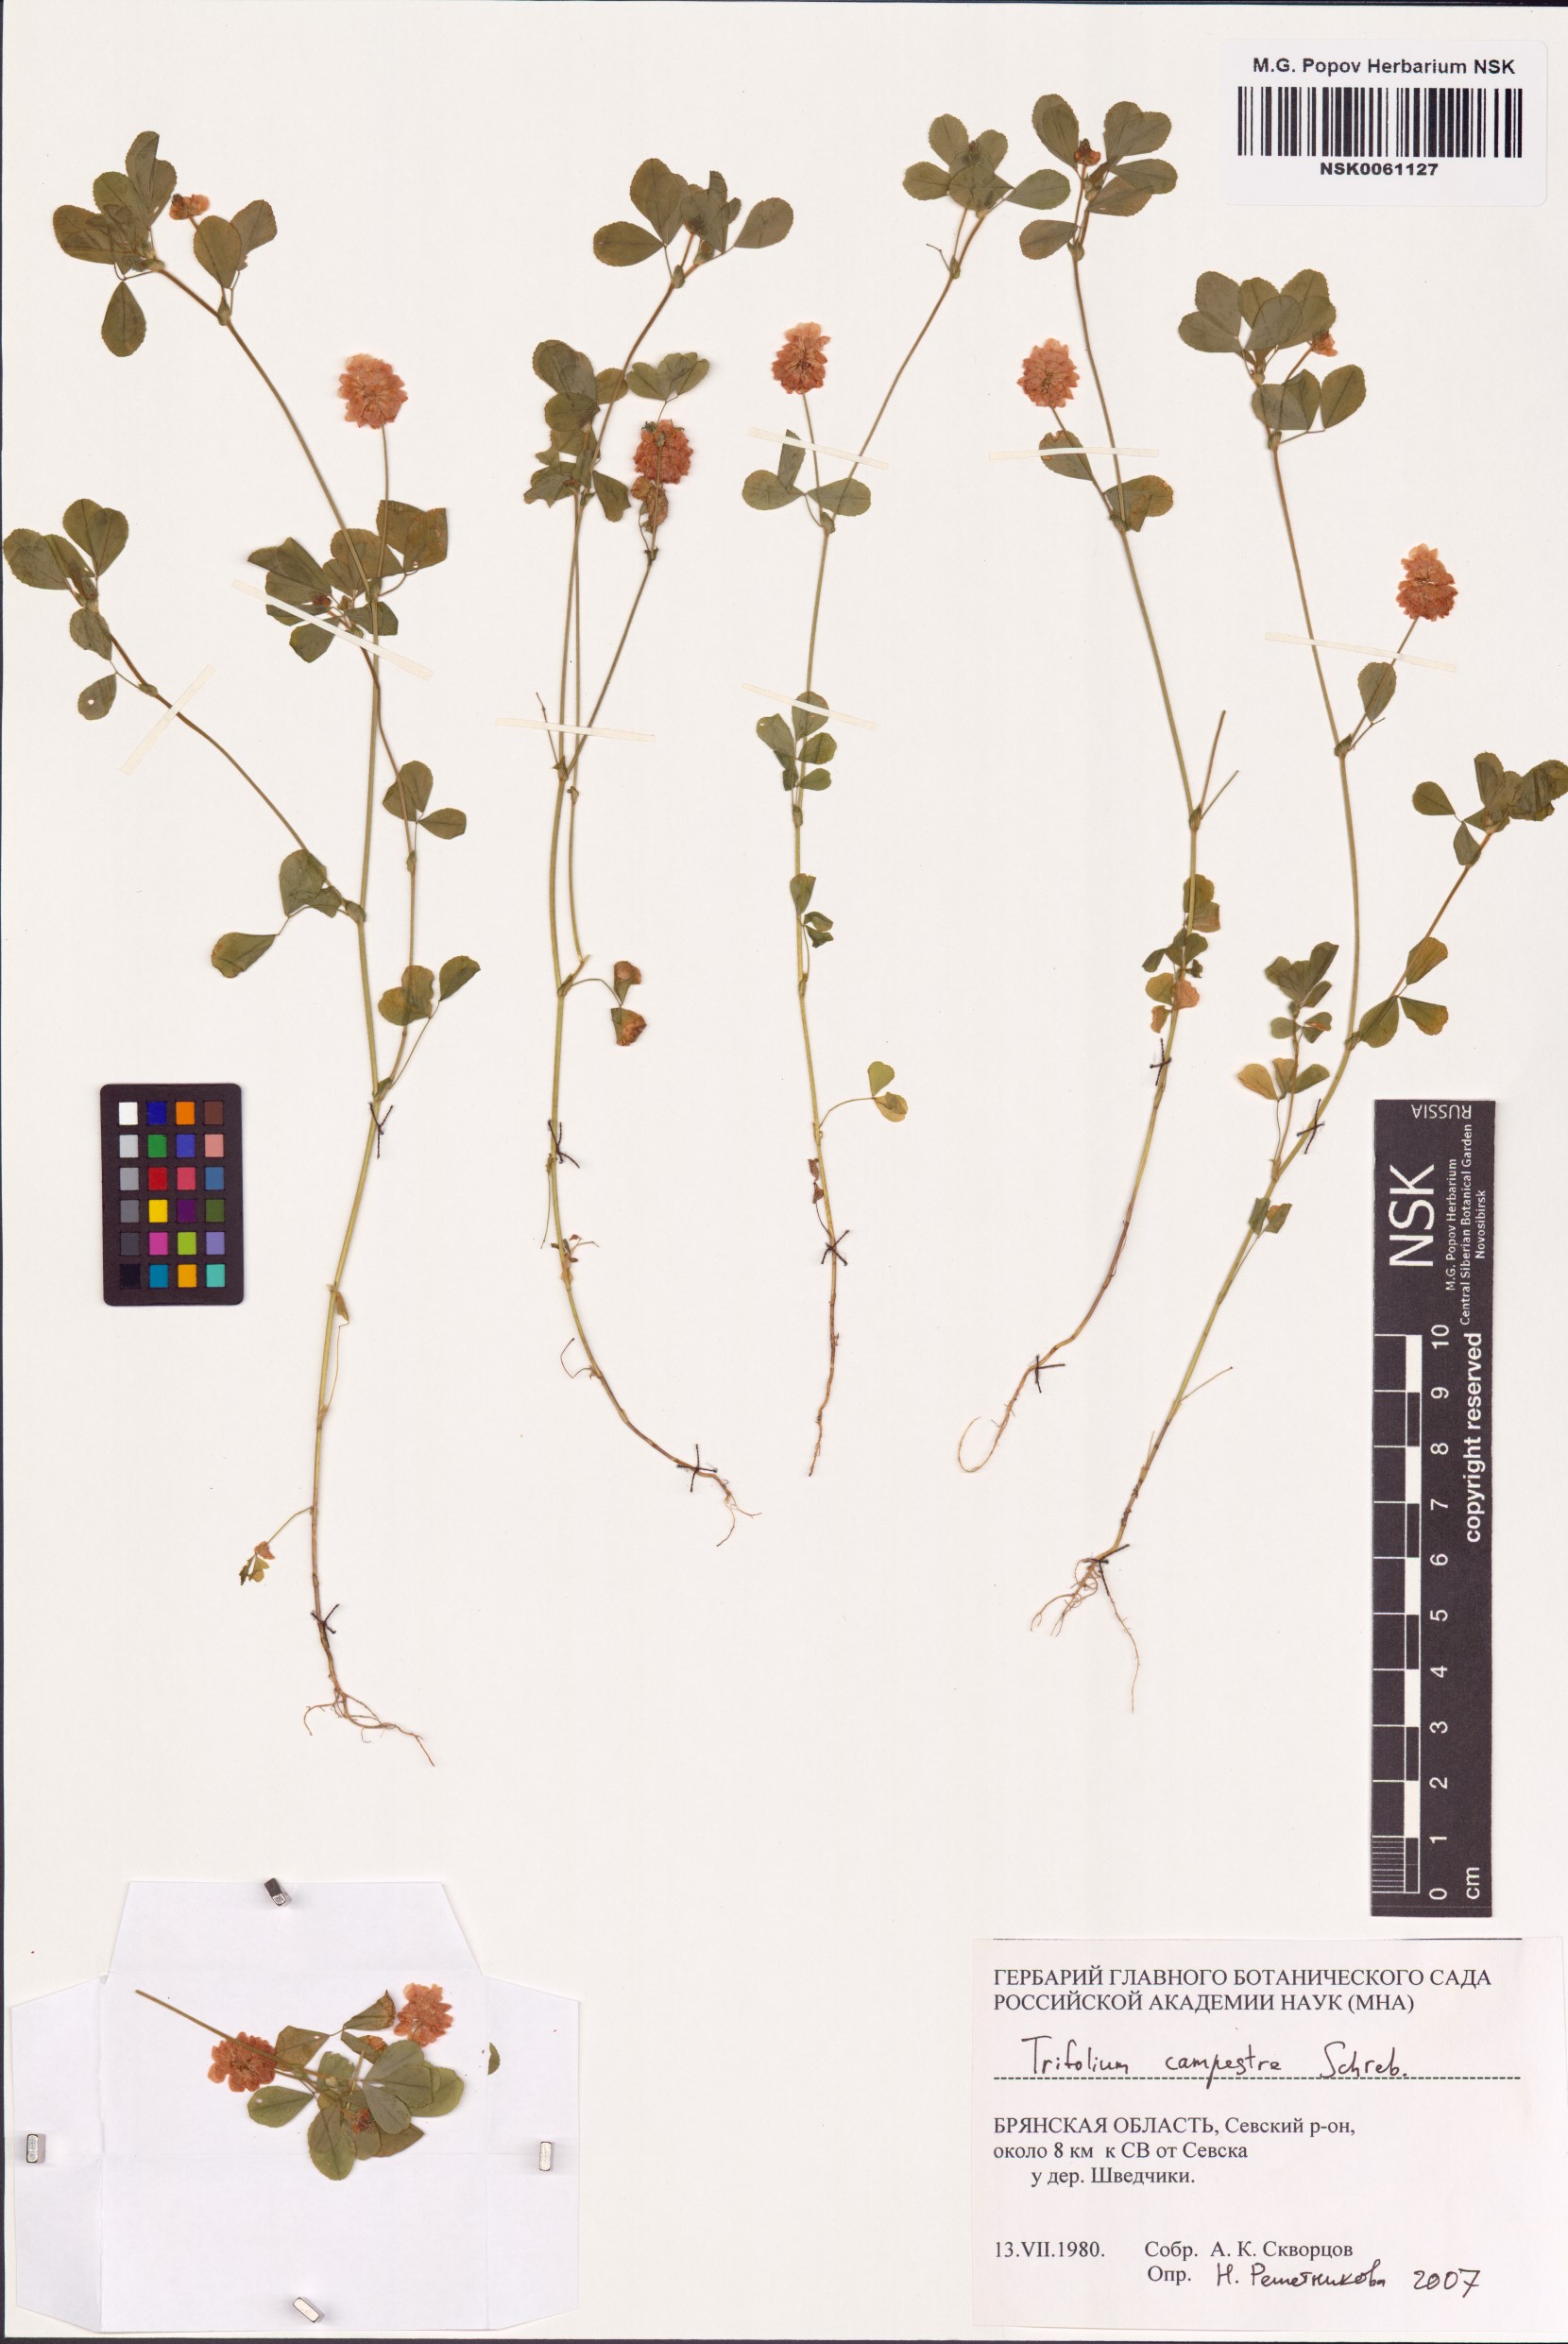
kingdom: Plantae
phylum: Tracheophyta
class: Magnoliopsida
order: Fabales
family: Fabaceae
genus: Trifolium
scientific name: Trifolium campestre
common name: Field clover
